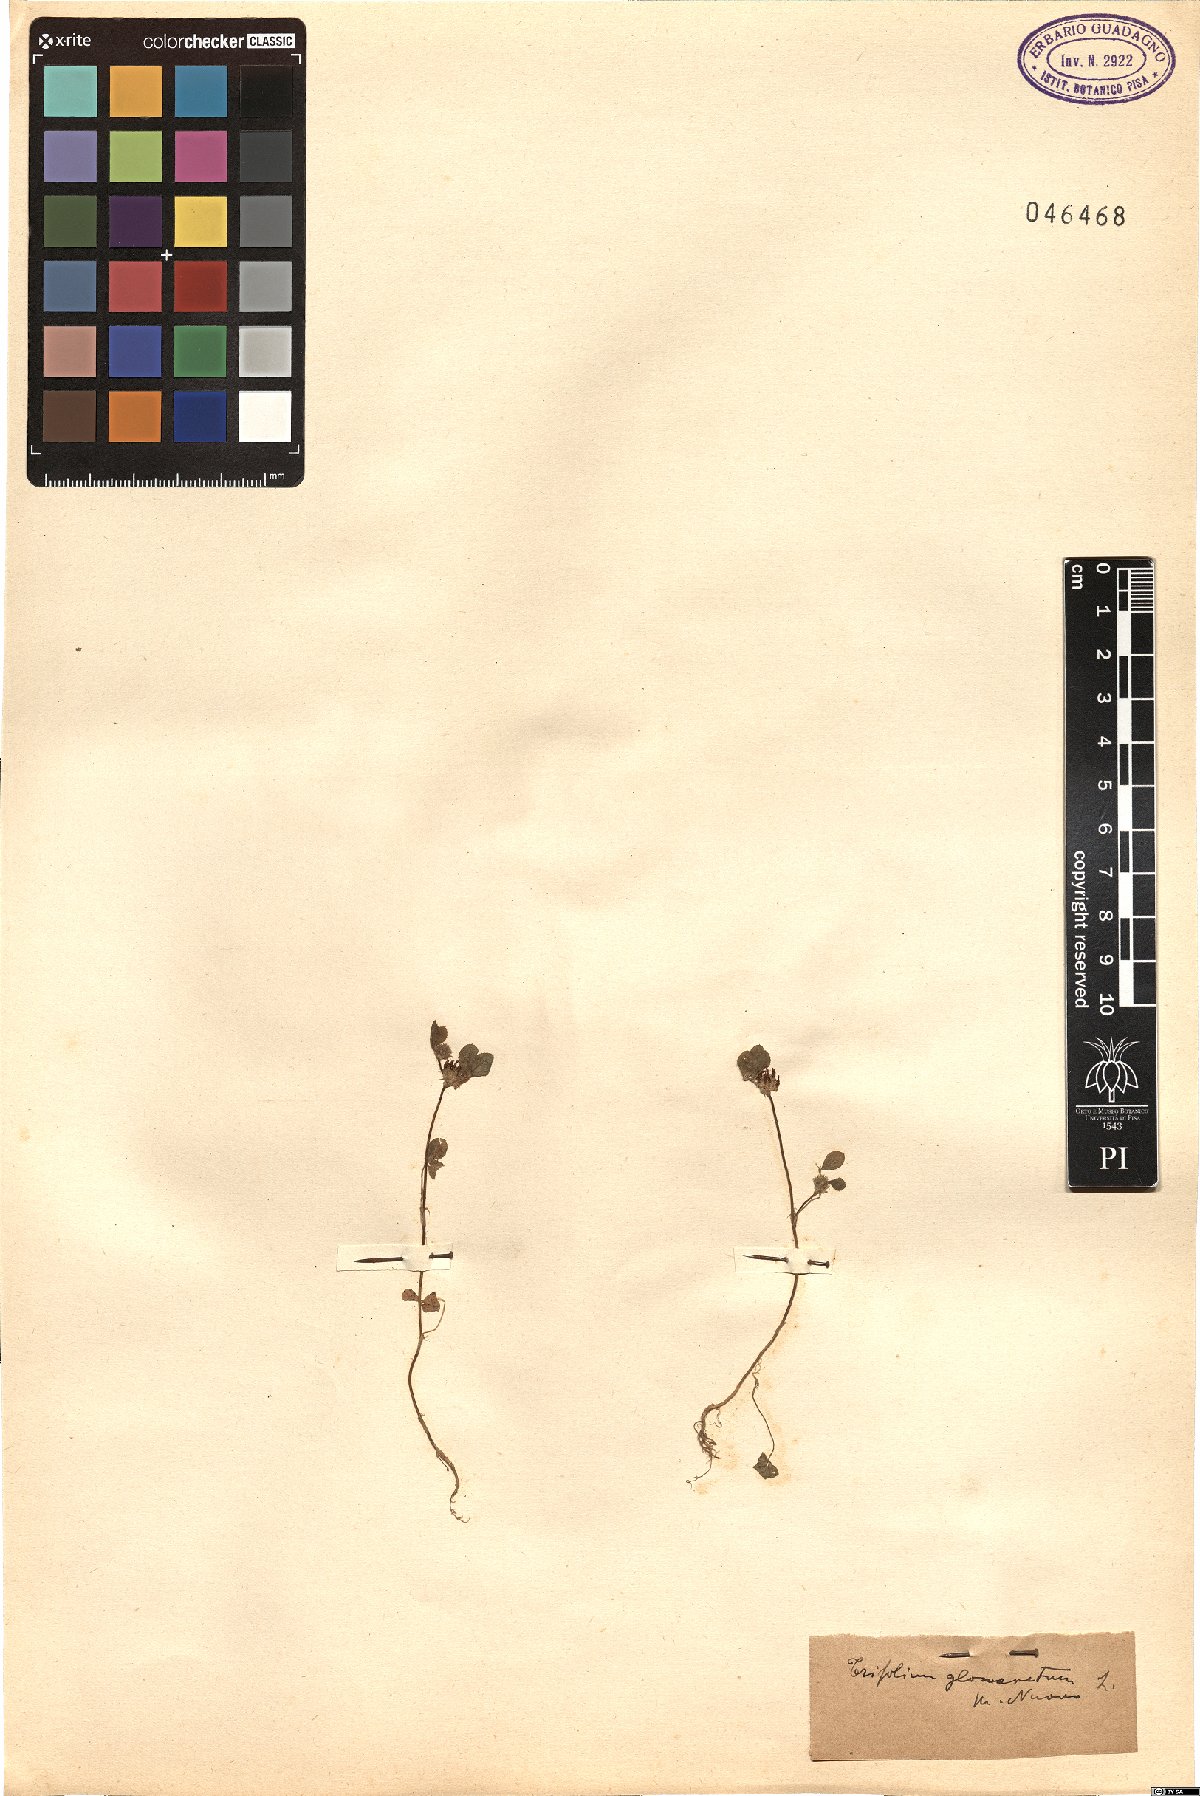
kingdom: Plantae
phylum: Tracheophyta
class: Magnoliopsida
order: Fabales
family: Fabaceae
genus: Trifolium
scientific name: Trifolium glomeratum
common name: Clustered clover
